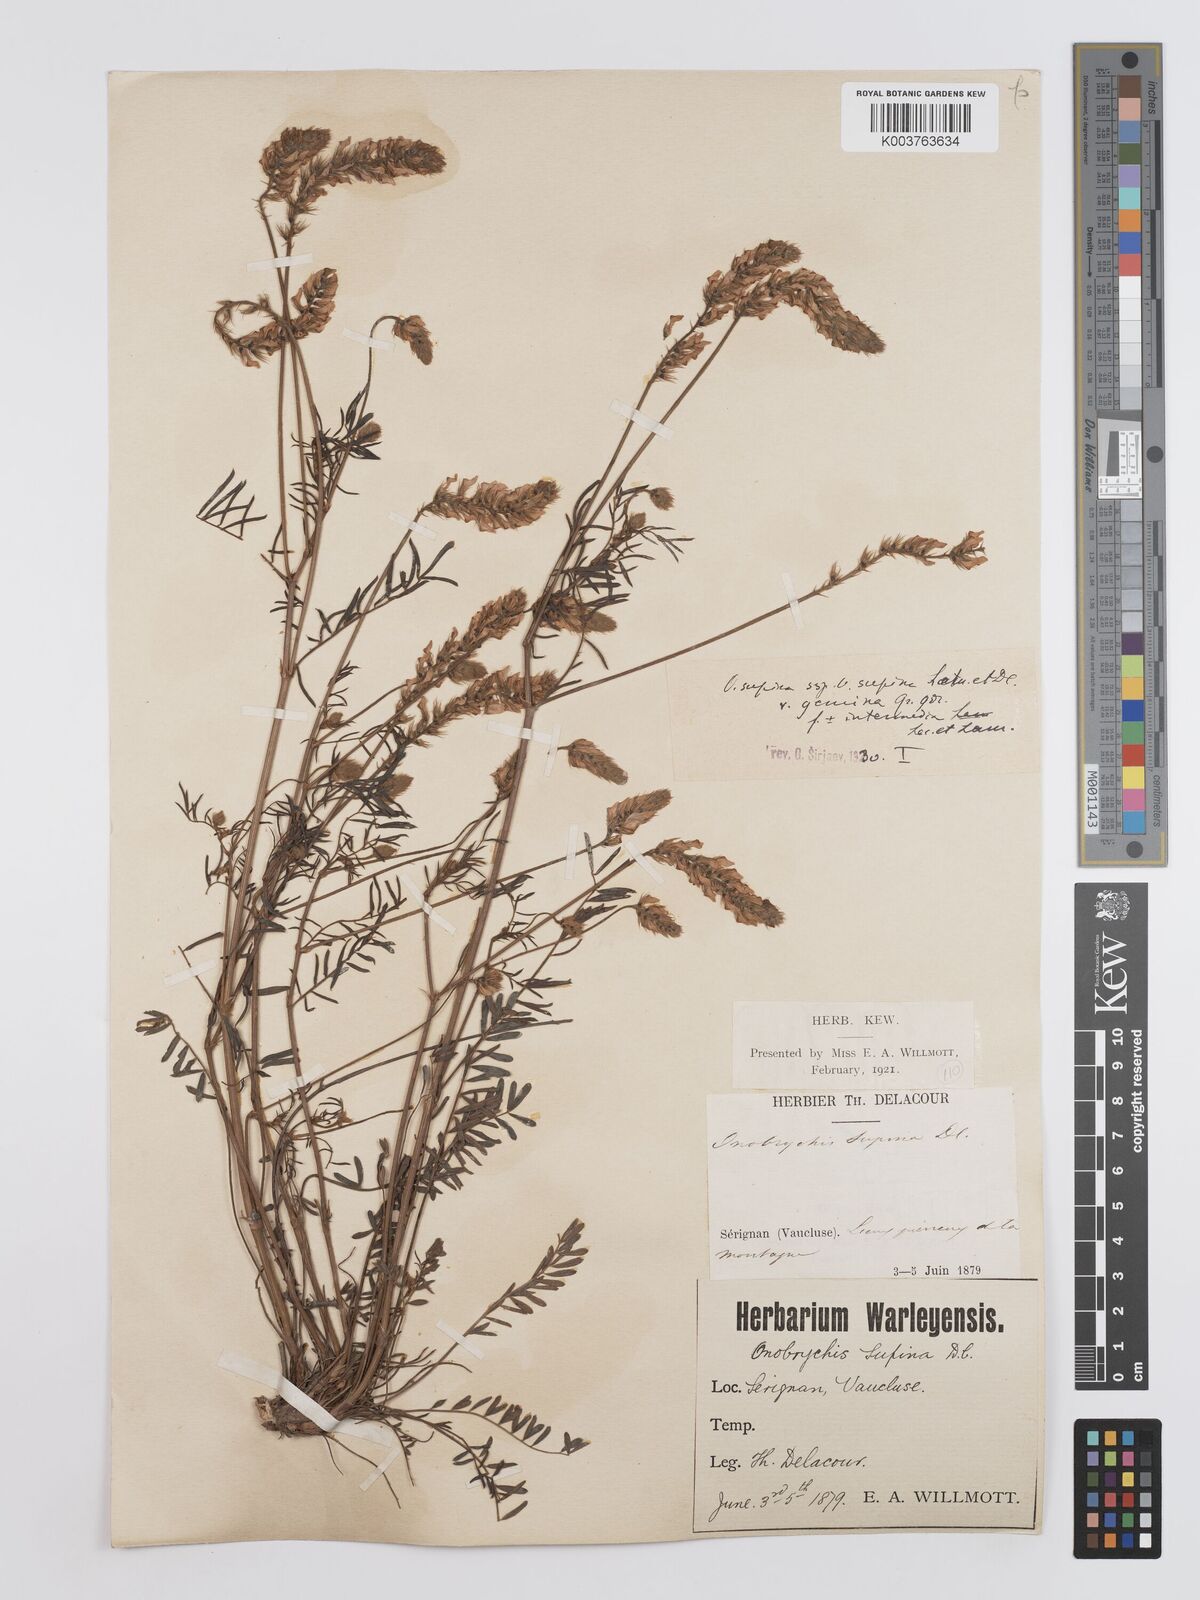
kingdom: Plantae
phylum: Tracheophyta
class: Magnoliopsida
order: Fabales
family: Fabaceae
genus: Onobrychis
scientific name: Onobrychis supina
